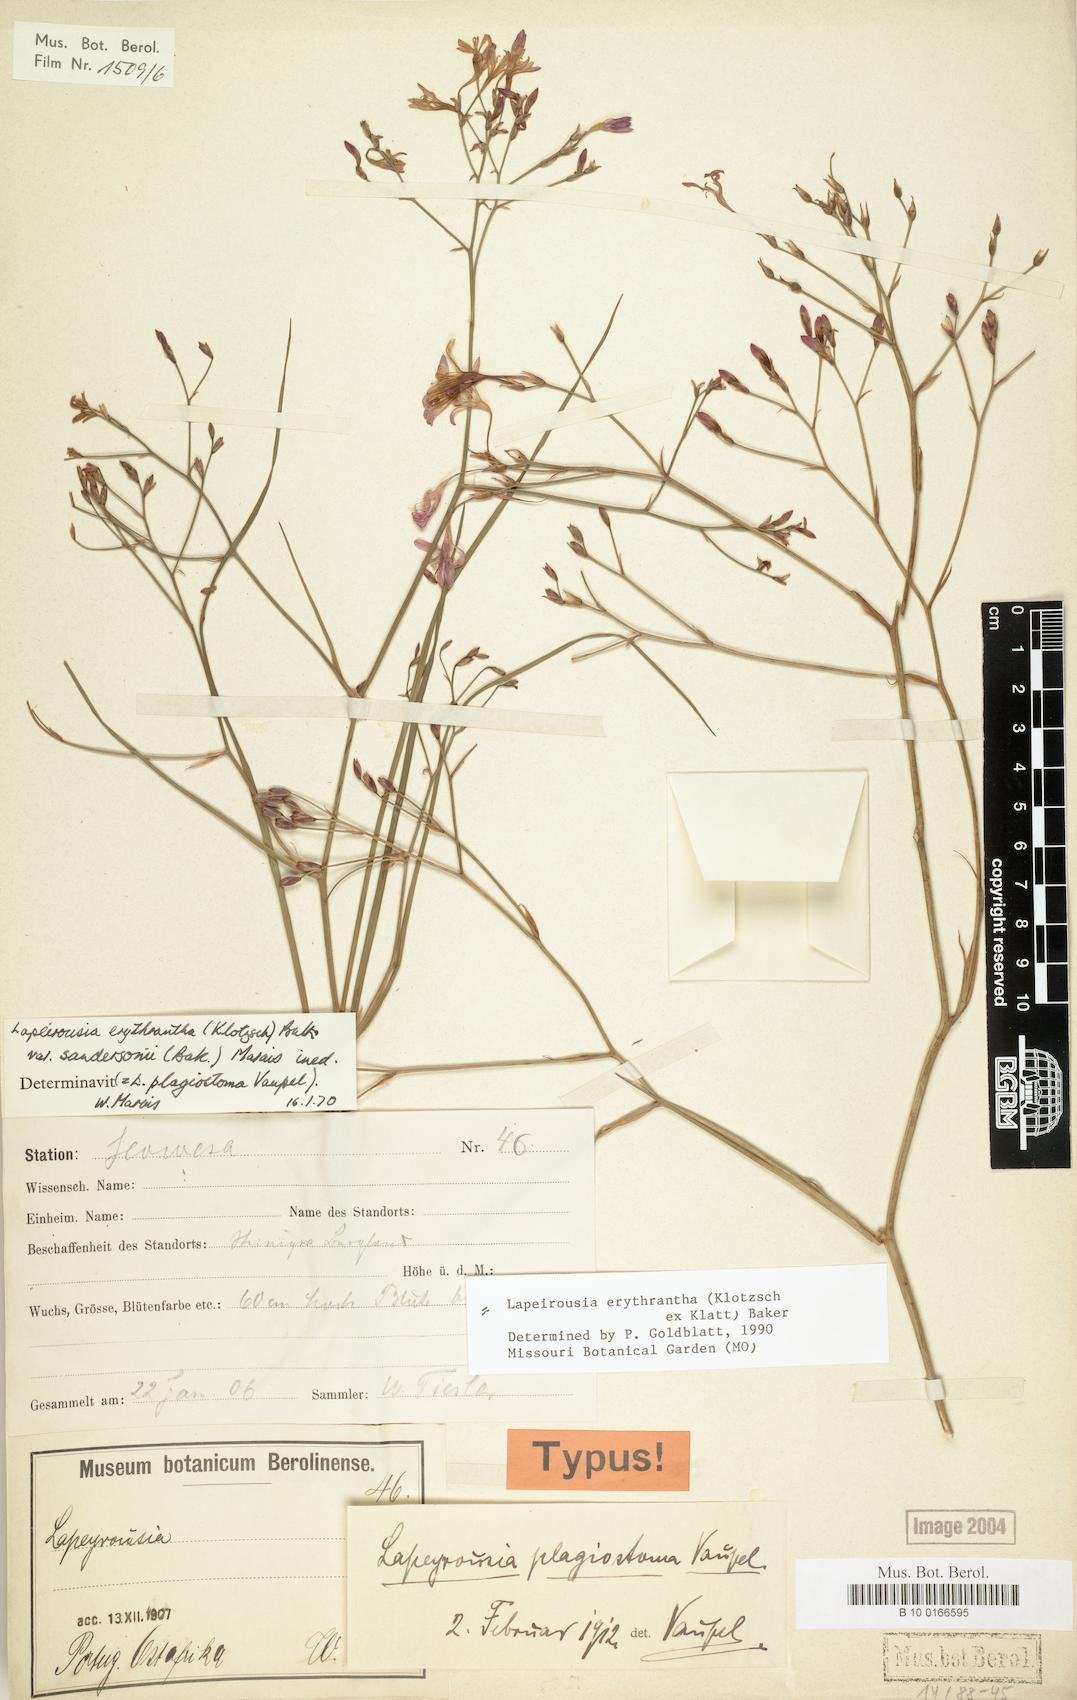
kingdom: Plantae
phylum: Tracheophyta
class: Liliopsida
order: Asparagales
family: Iridaceae
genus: Afrosolen
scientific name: Afrosolen erythranthus
